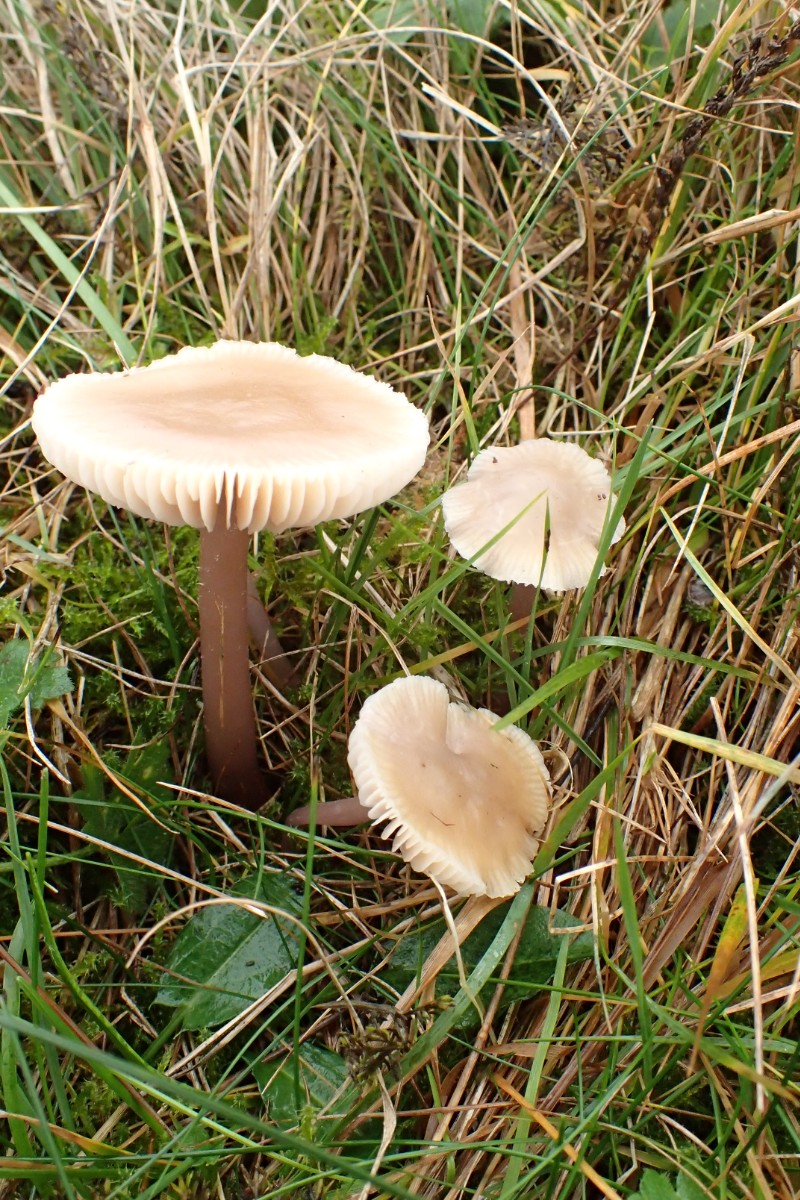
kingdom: Fungi
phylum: Basidiomycota
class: Agaricomycetes
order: Agaricales
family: Mycenaceae
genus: Mycena
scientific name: Mycena luteovariegata
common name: lillagul huesvamp
